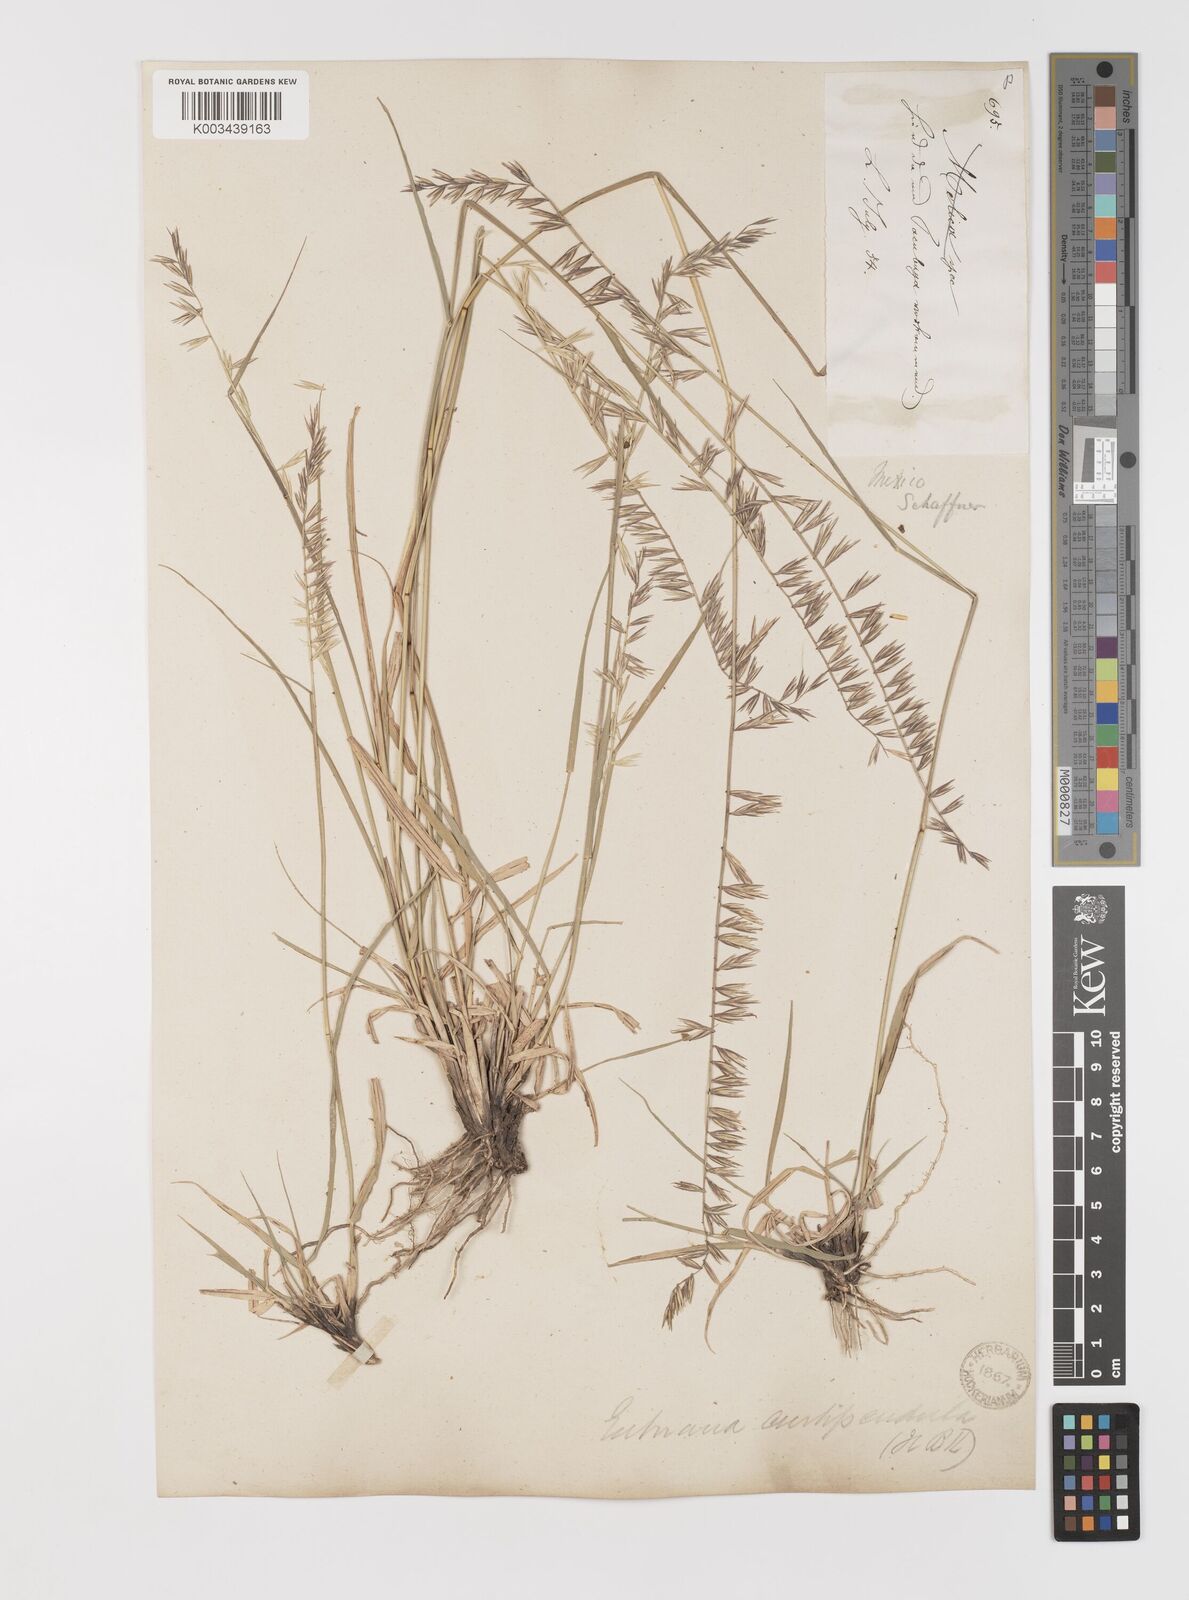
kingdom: Plantae
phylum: Tracheophyta
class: Liliopsida
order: Poales
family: Poaceae
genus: Bouteloua
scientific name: Bouteloua curtipendula
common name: Side-oats grama
